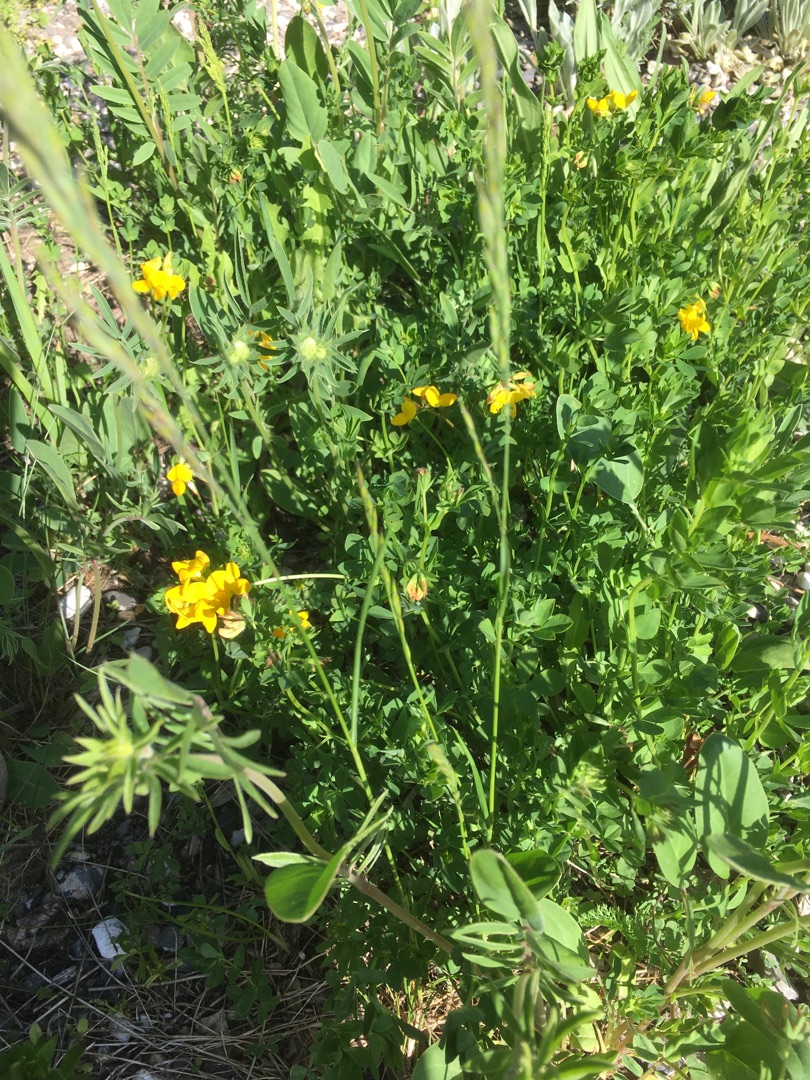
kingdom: Plantae
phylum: Tracheophyta
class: Magnoliopsida
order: Fabales
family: Fabaceae
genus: Lotus
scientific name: Lotus corniculatus
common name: Almindelig kællingetand
